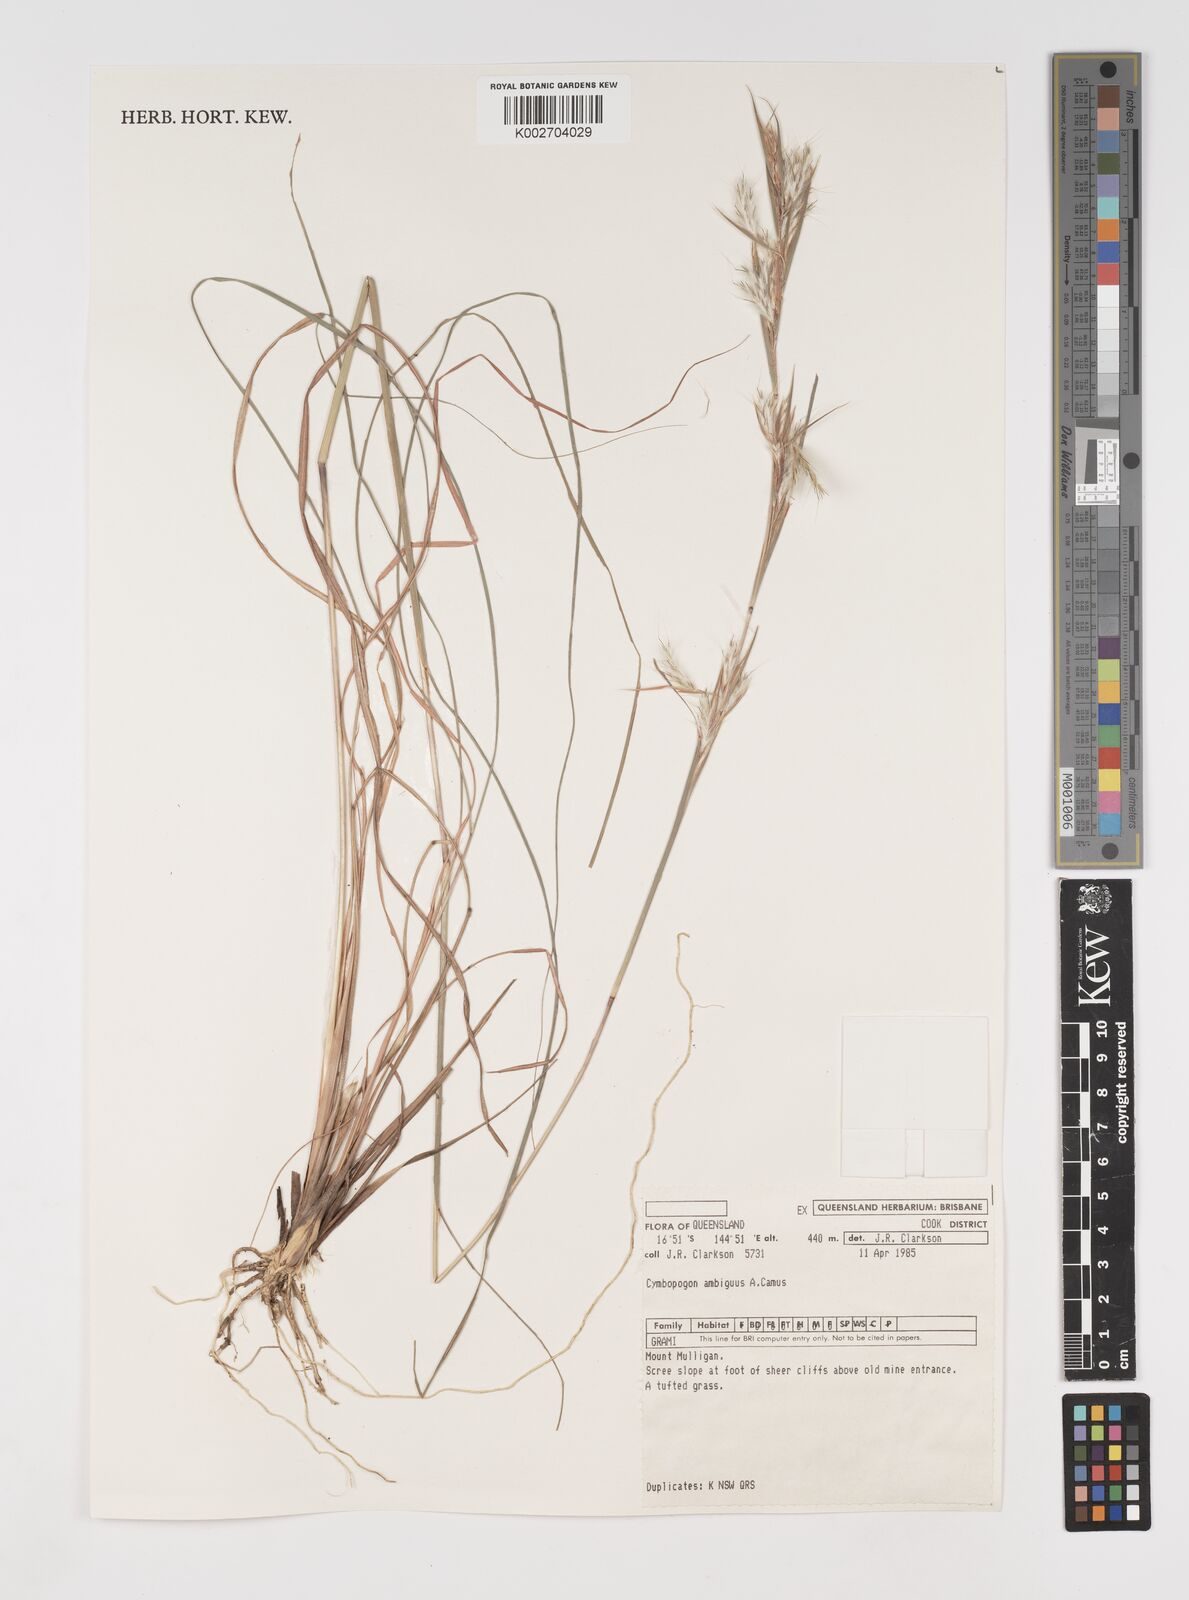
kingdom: Plantae
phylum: Tracheophyta
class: Liliopsida
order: Poales
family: Poaceae
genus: Cymbopogon
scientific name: Cymbopogon ambiguus
